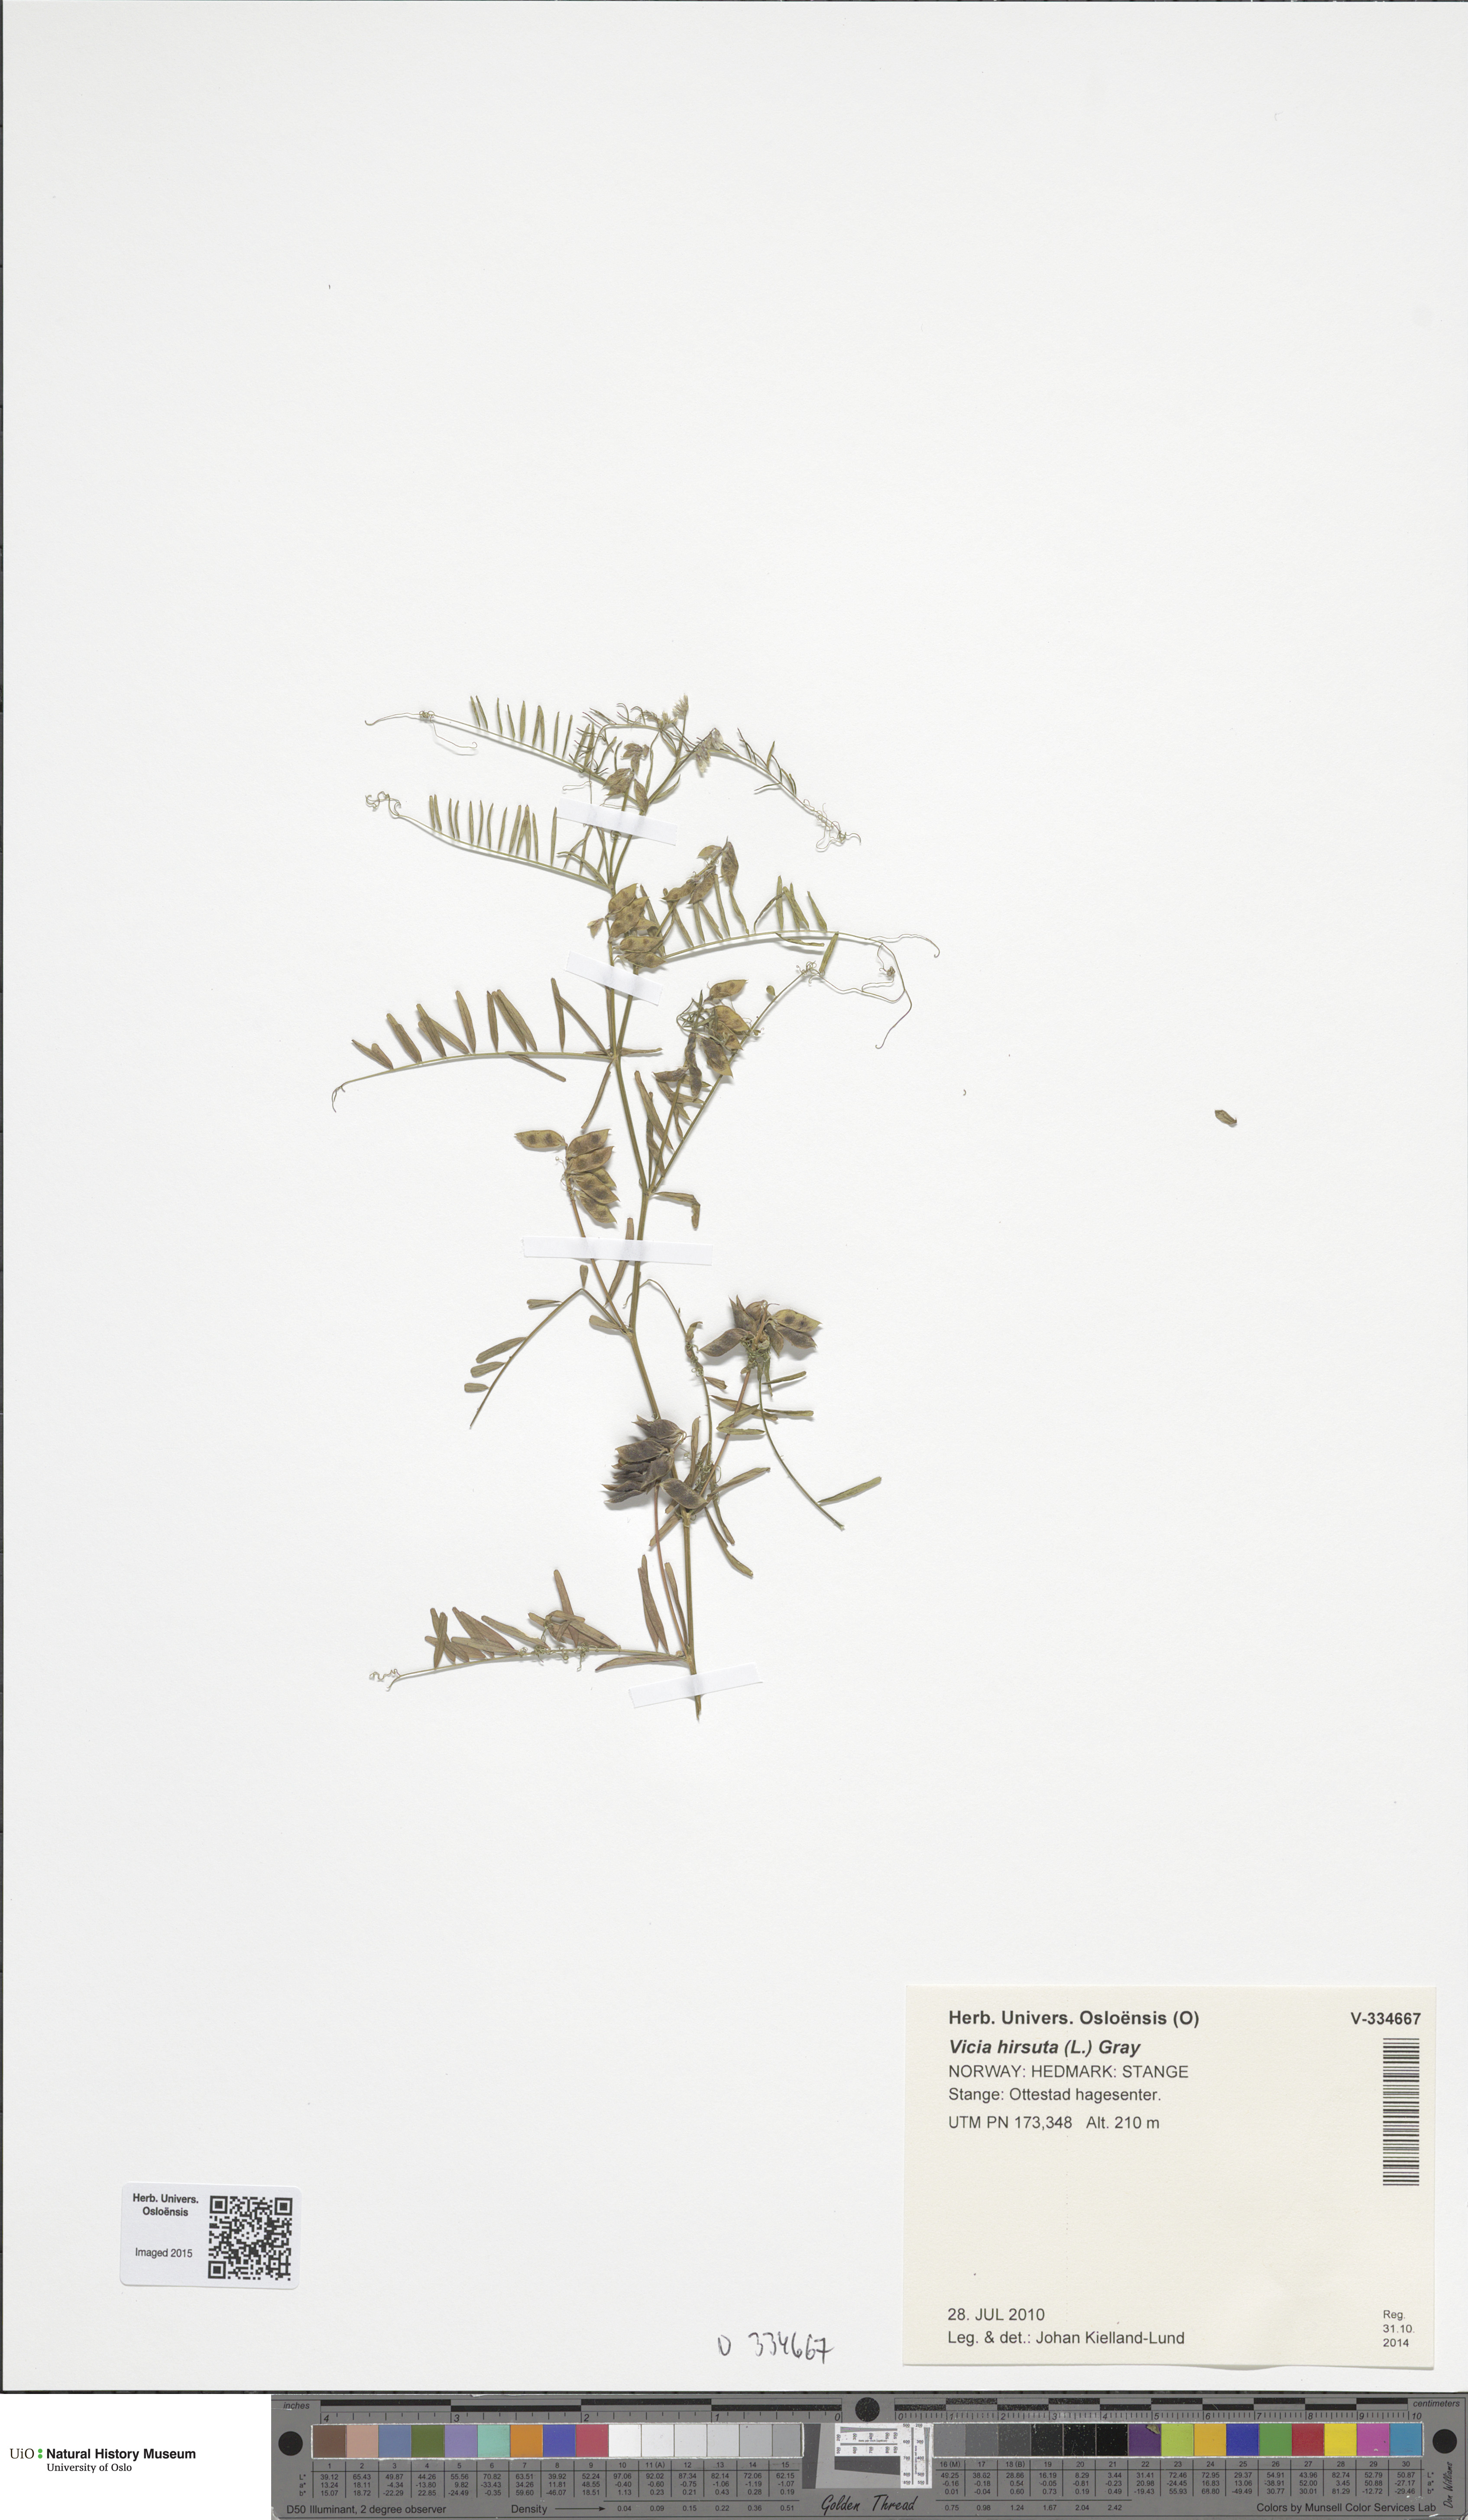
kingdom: Plantae
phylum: Tracheophyta
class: Magnoliopsida
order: Fabales
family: Fabaceae
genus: Vicia
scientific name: Vicia hirsuta
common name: Tiny vetch
